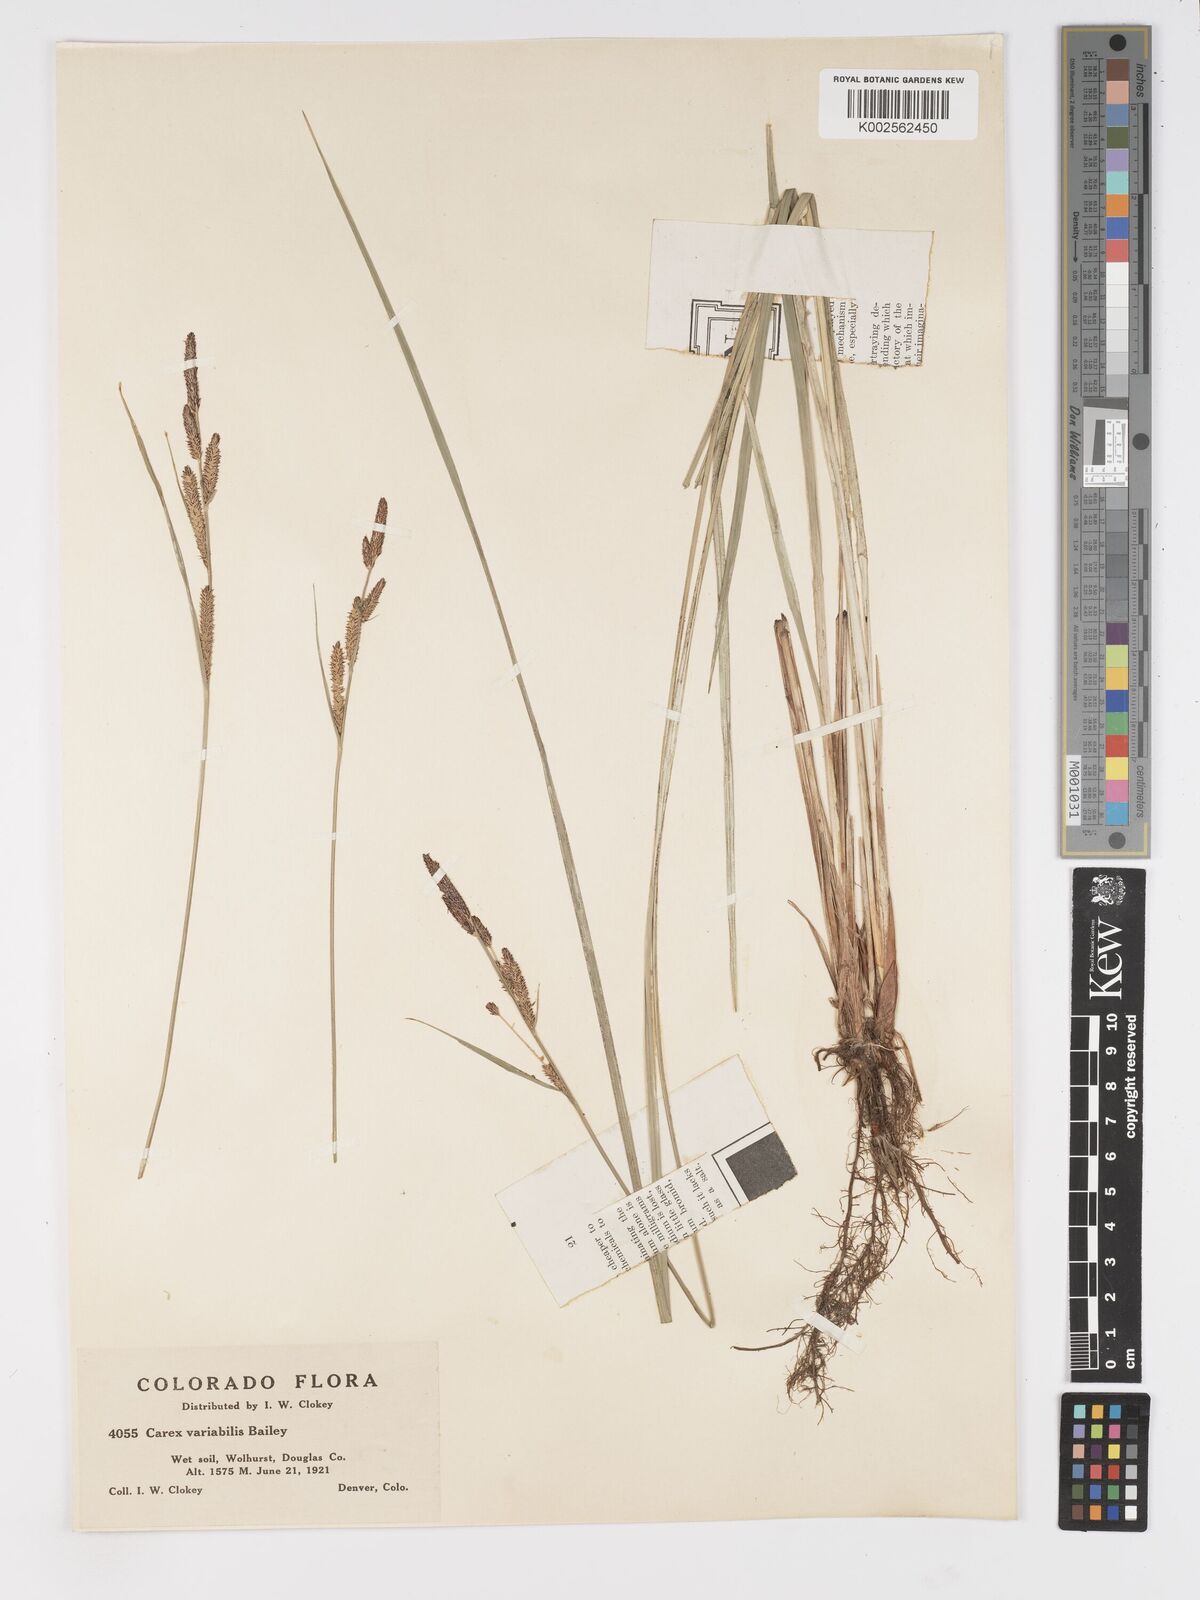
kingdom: Plantae
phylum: Tracheophyta
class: Liliopsida
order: Poales
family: Cyperaceae
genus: Carex
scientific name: Carex
